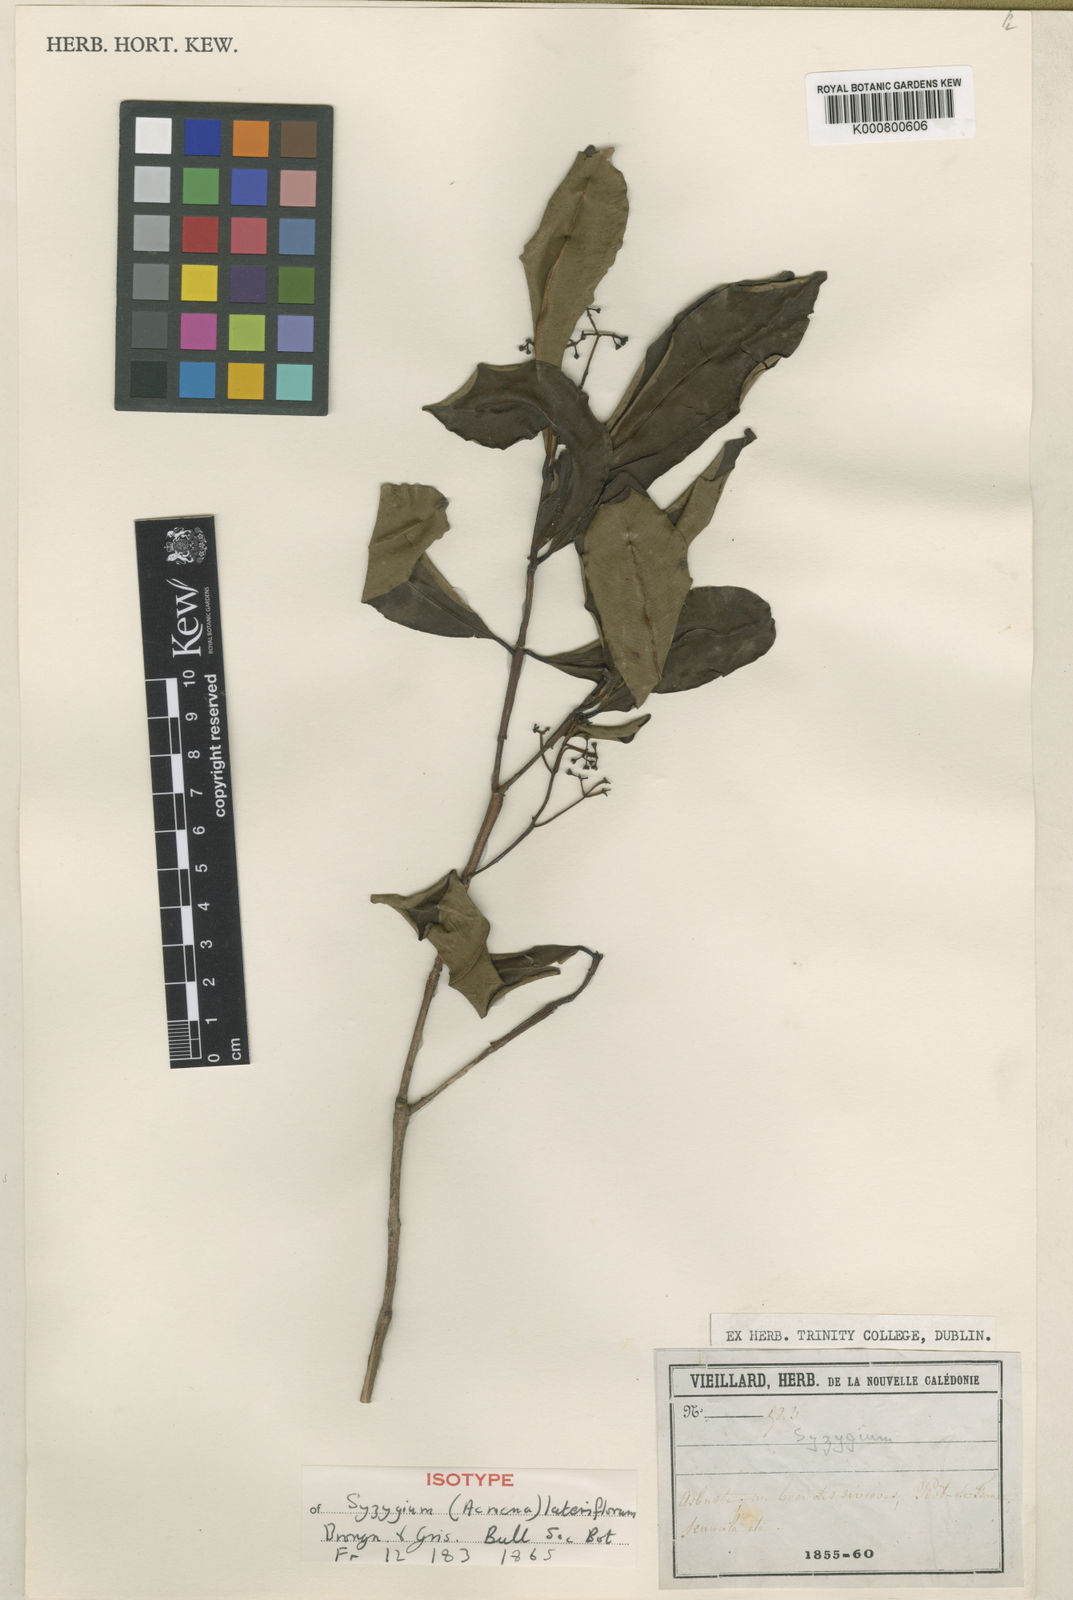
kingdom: Plantae
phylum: Tracheophyta
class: Magnoliopsida
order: Myrtales
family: Myrtaceae
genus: Syzygium
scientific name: Syzygium lateriflorum
